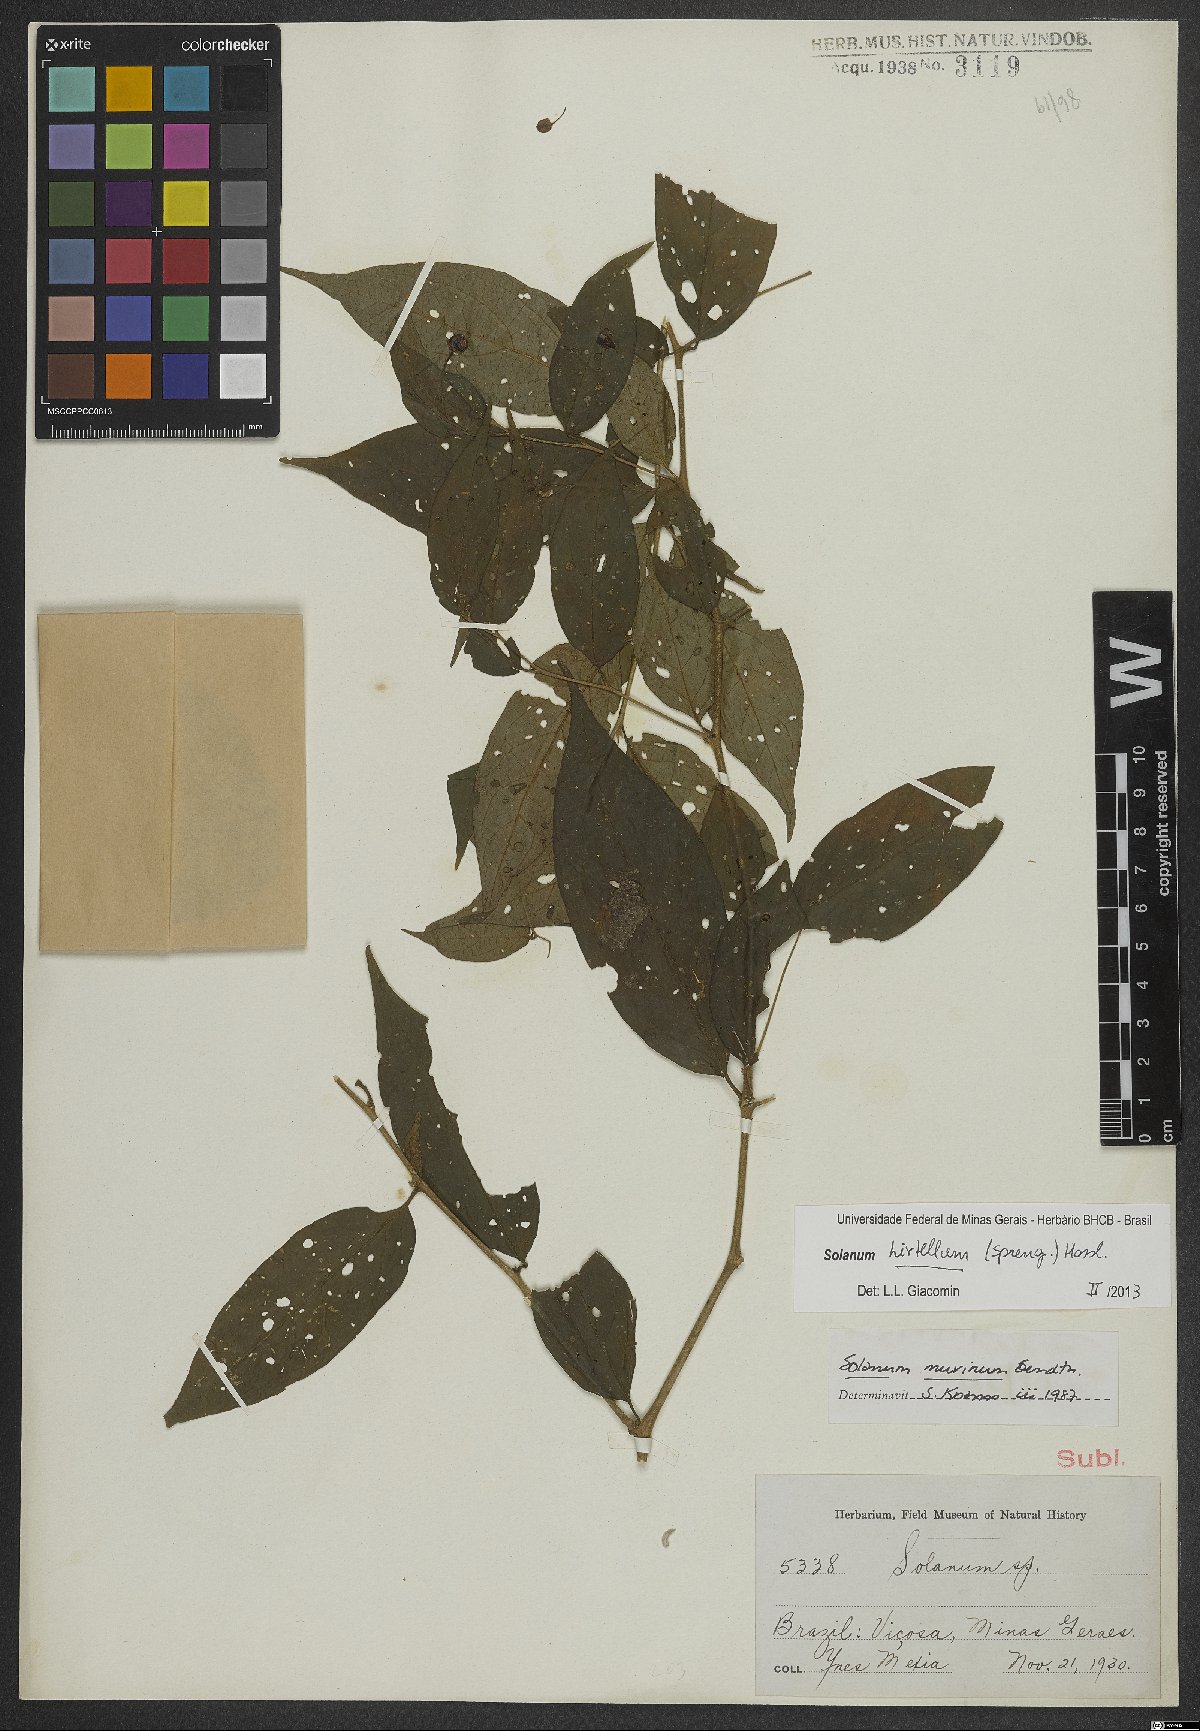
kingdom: Plantae
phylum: Tracheophyta
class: Magnoliopsida
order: Solanales
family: Solanaceae
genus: Solanum
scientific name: Solanum hirtellum
